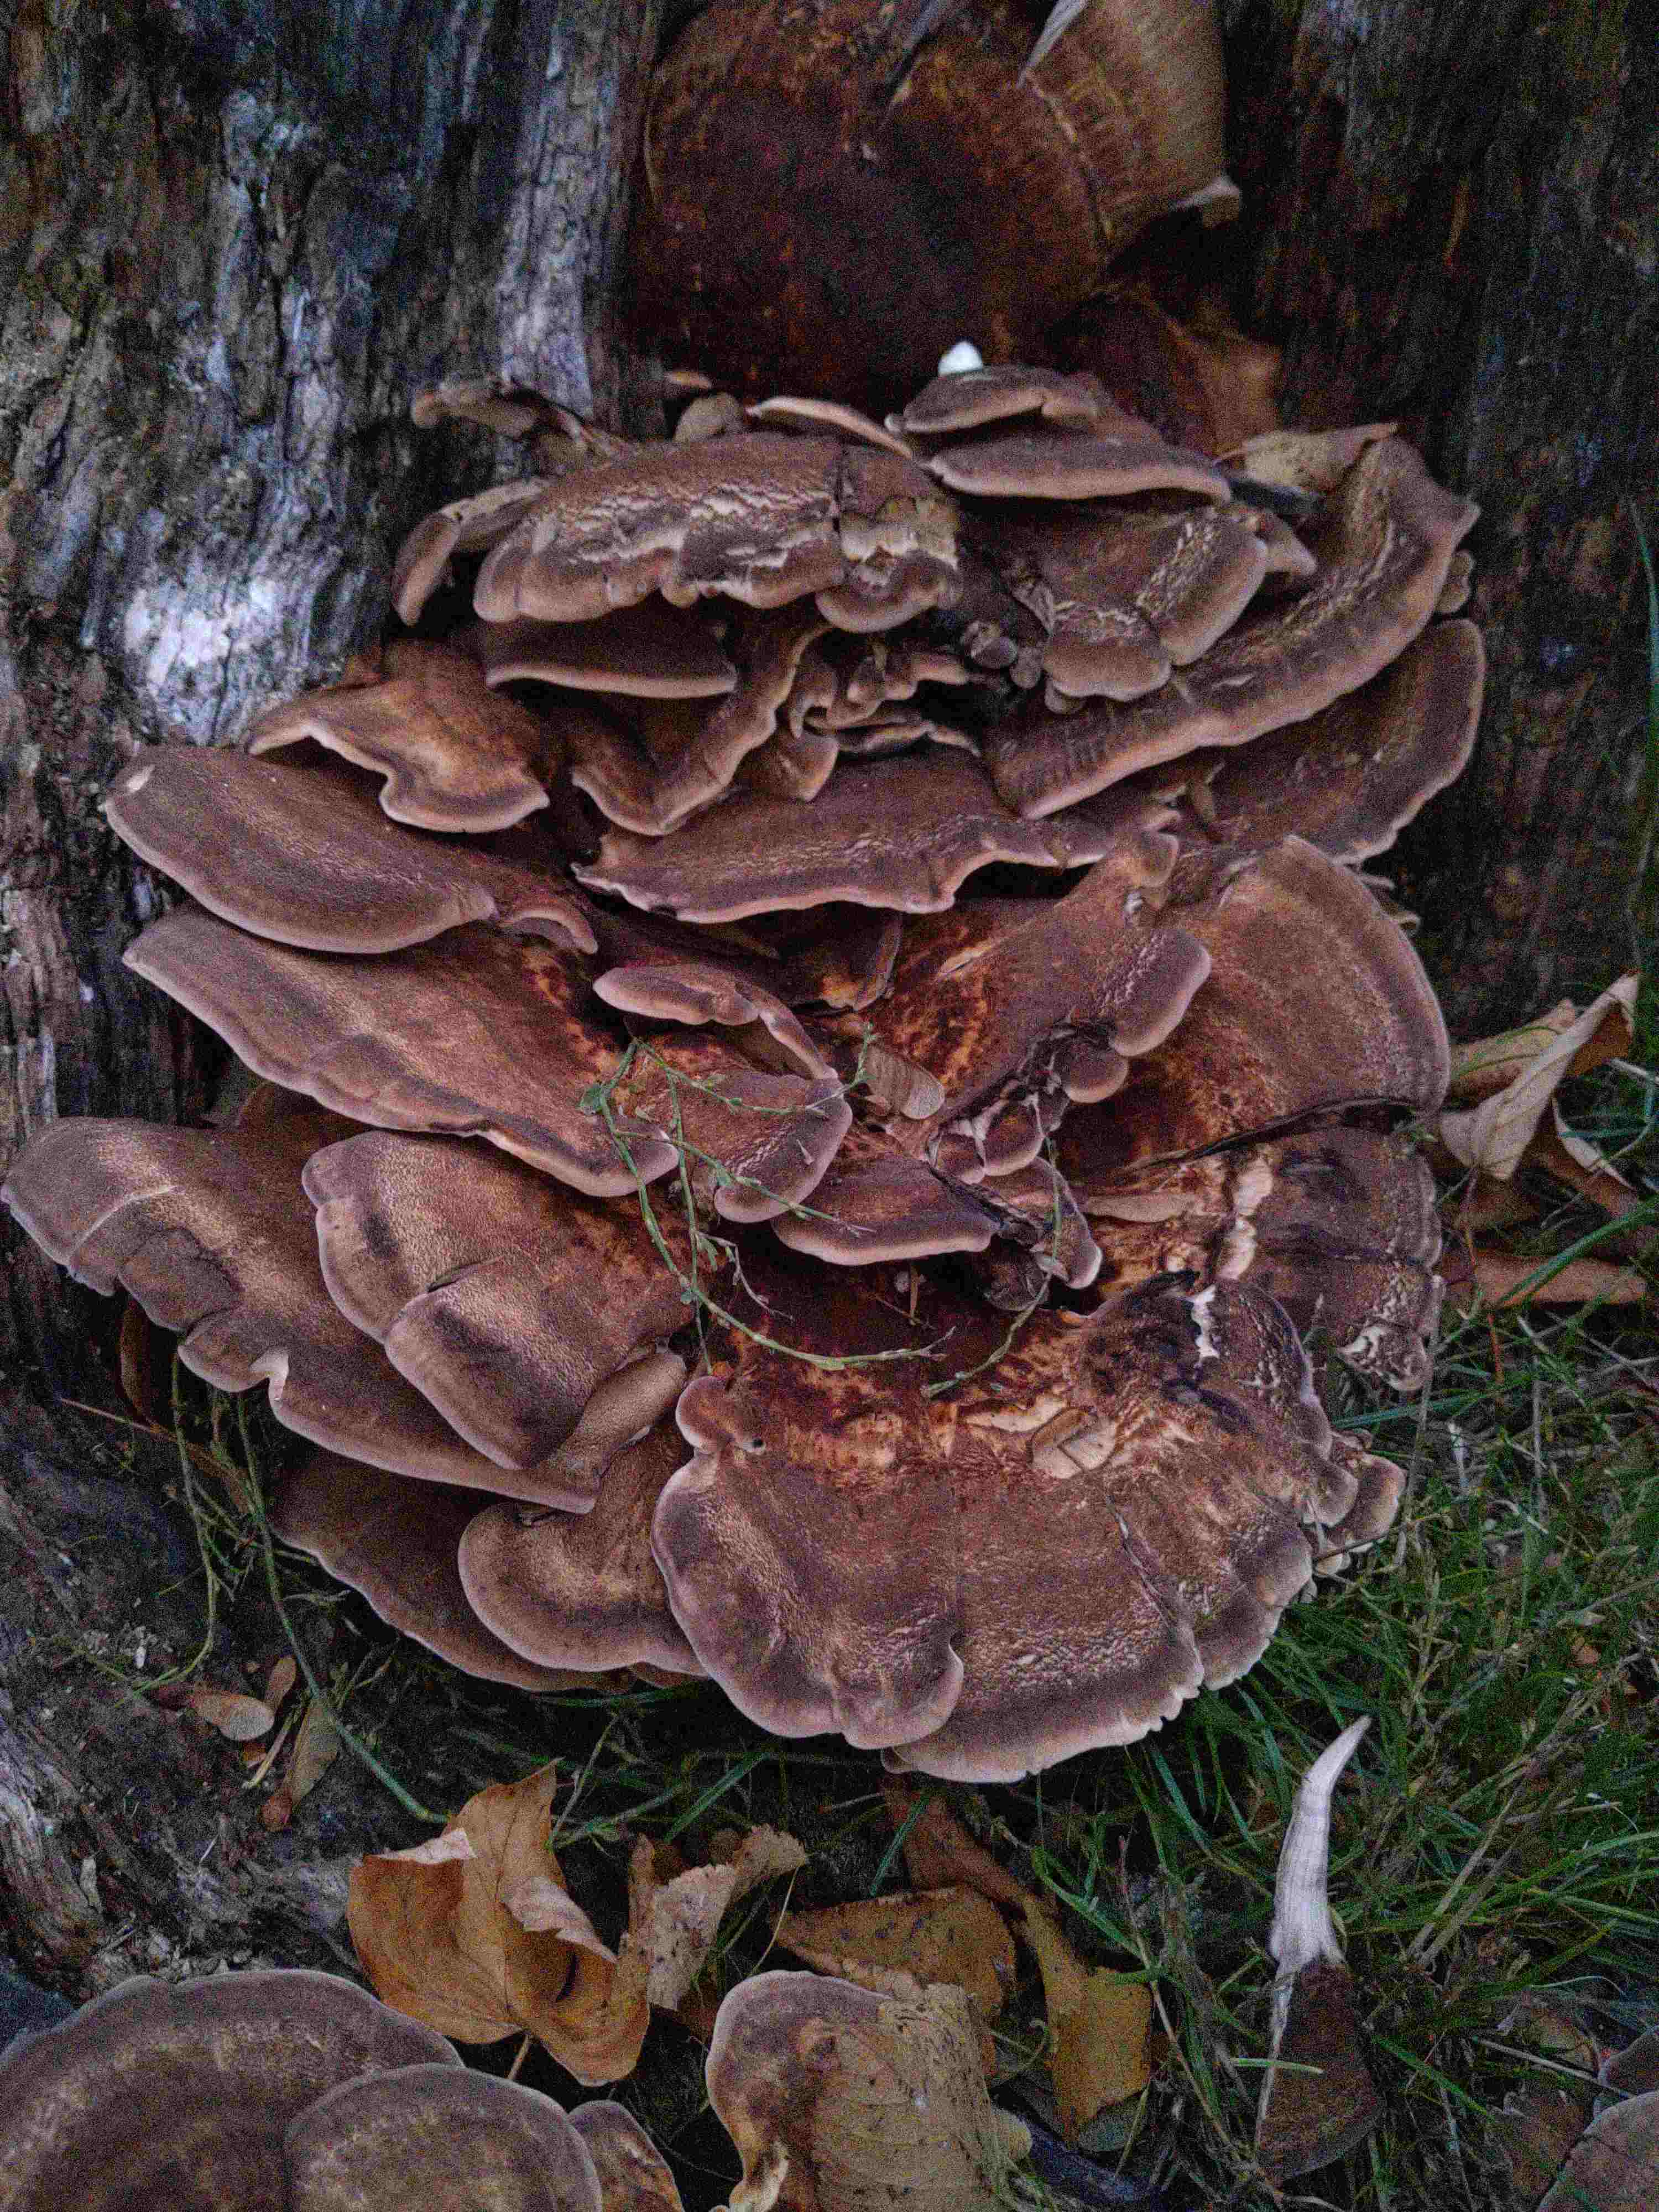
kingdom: Fungi
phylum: Basidiomycota
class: Agaricomycetes
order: Polyporales
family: Meripilaceae
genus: Meripilus
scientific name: Meripilus giganteus
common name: kæmpeporesvamp
